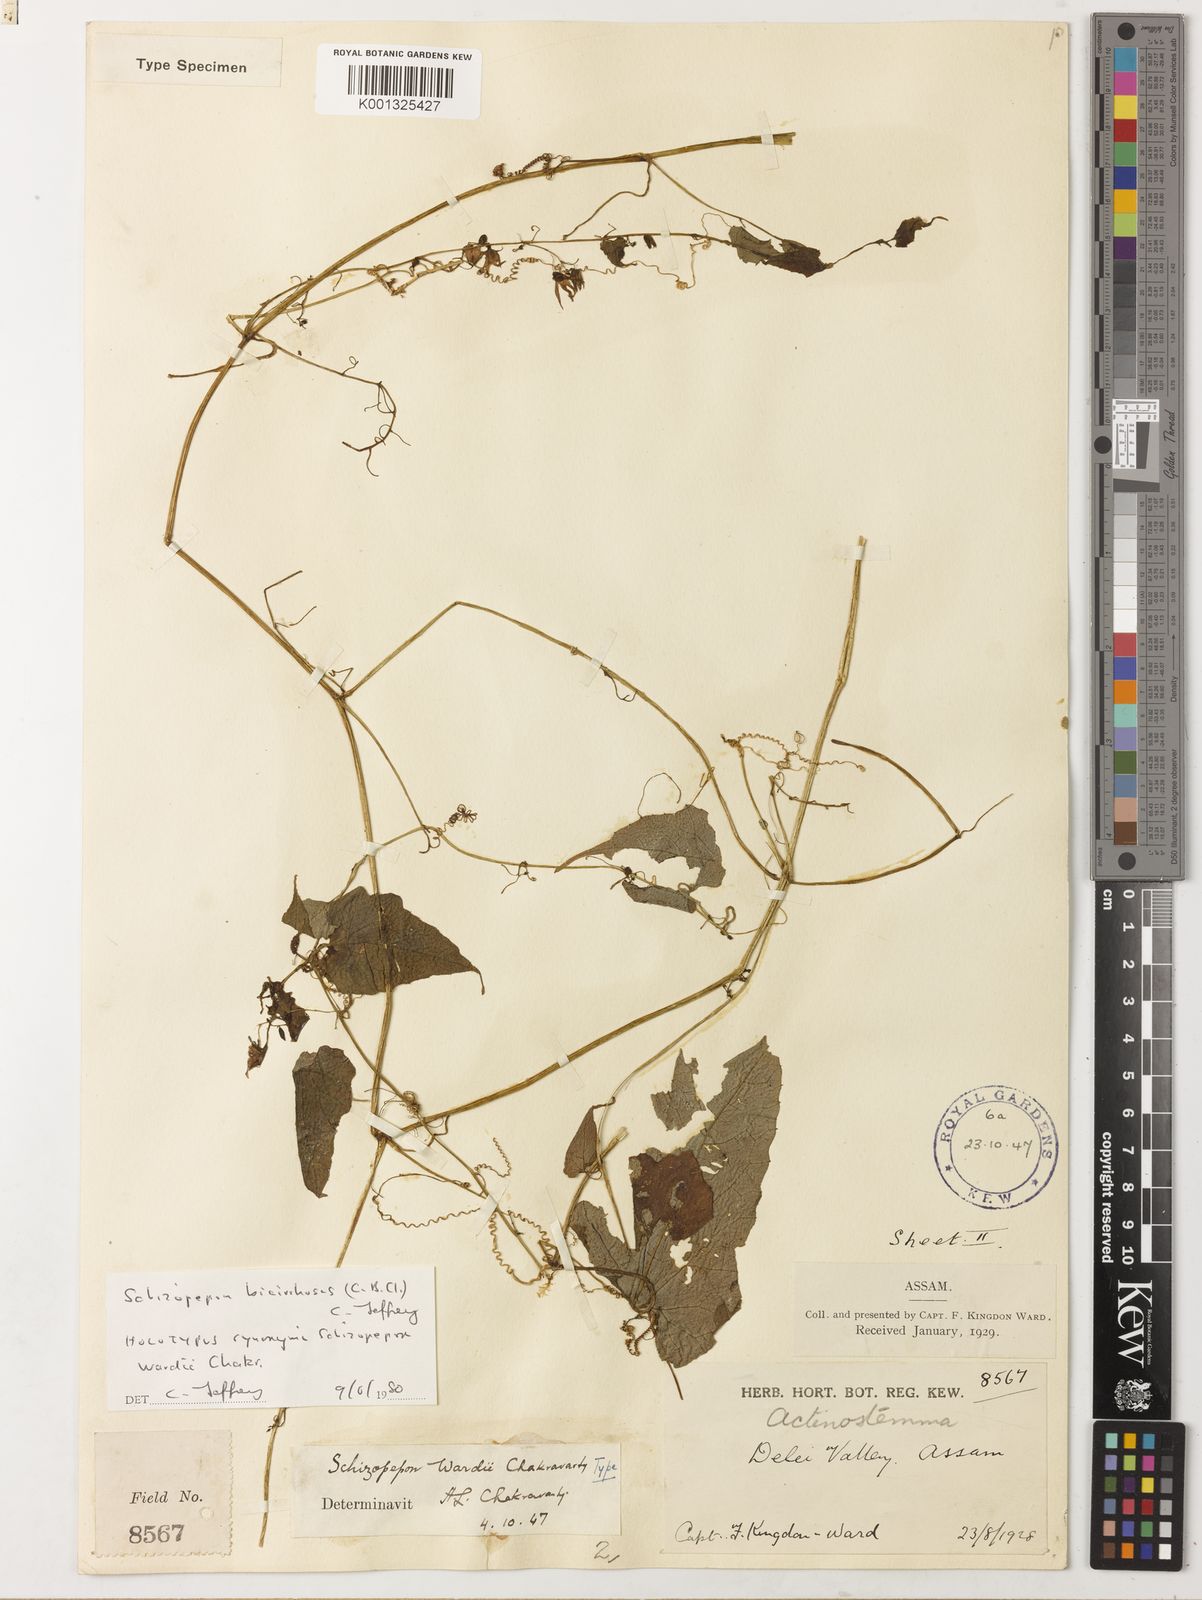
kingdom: Plantae
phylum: Tracheophyta
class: Magnoliopsida
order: Cucurbitales
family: Cucurbitaceae
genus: Schizopepon
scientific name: Schizopepon bicirrhosa
